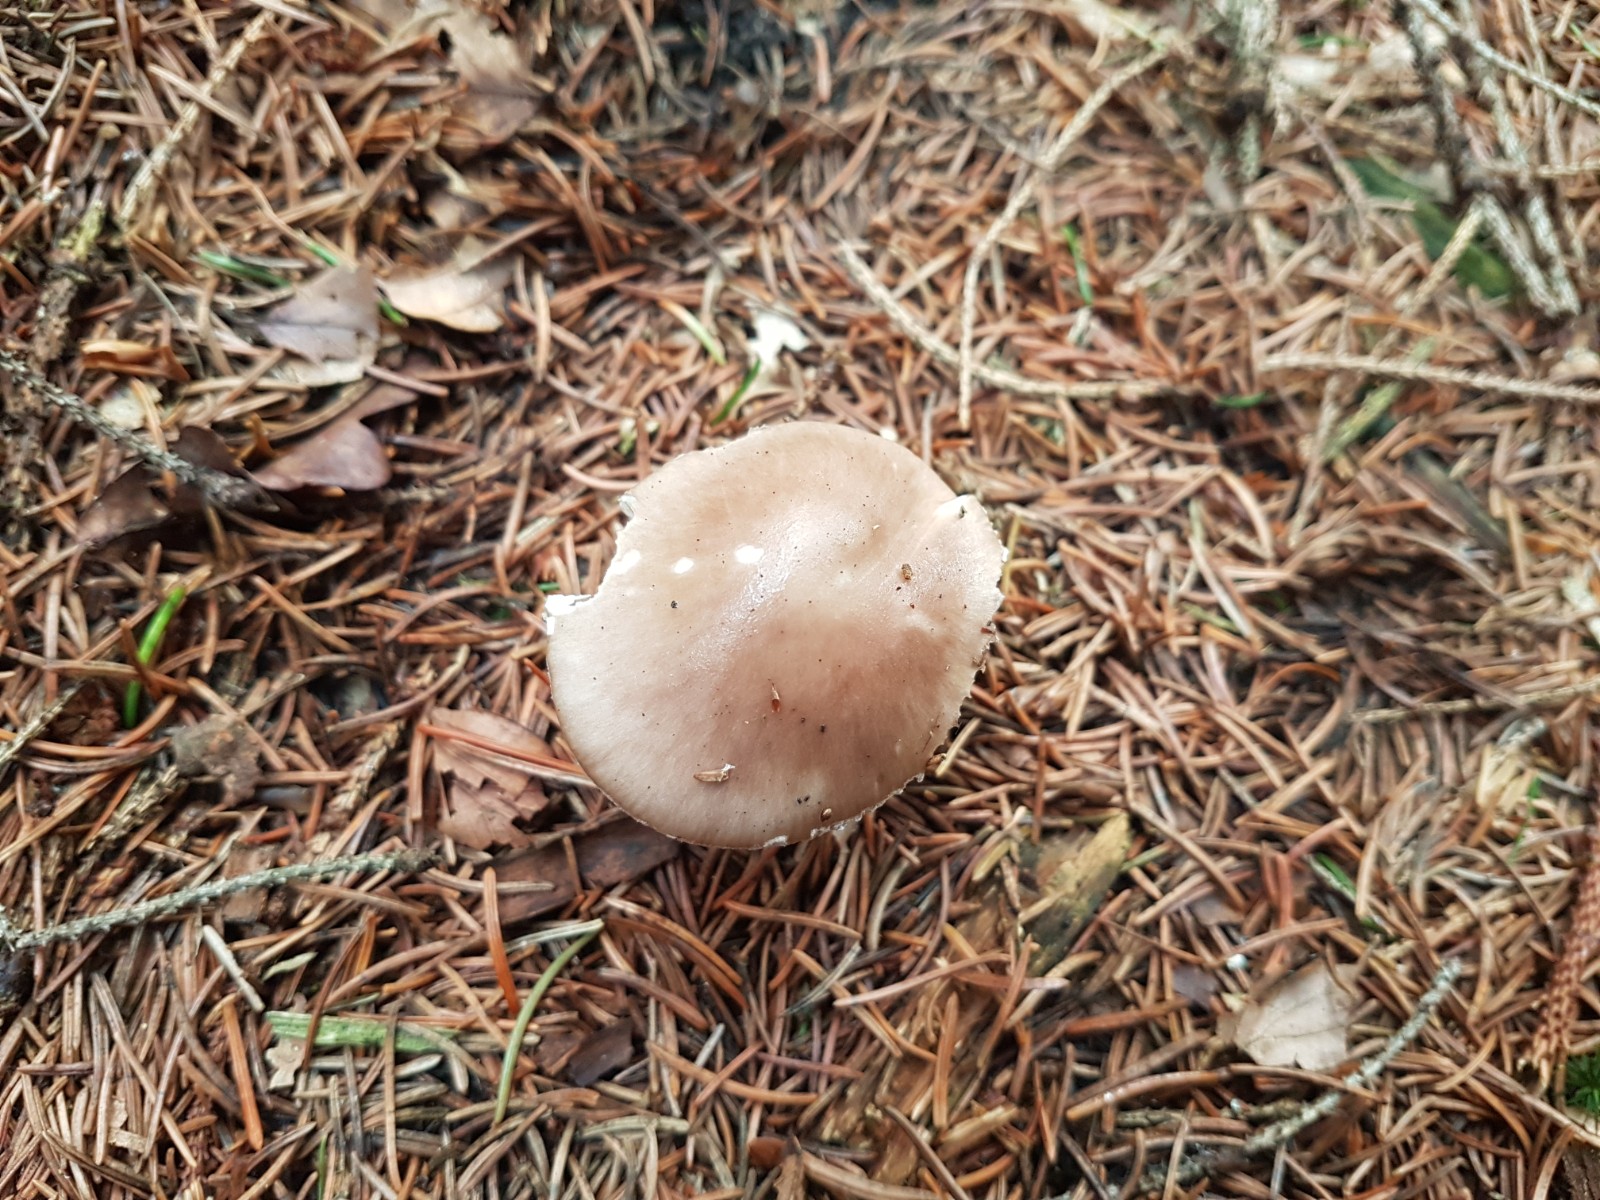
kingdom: Fungi
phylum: Basidiomycota
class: Agaricomycetes
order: Agaricales
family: Amanitaceae
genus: Amanita
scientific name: Amanita porphyria
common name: porfyr-fluesvamp
